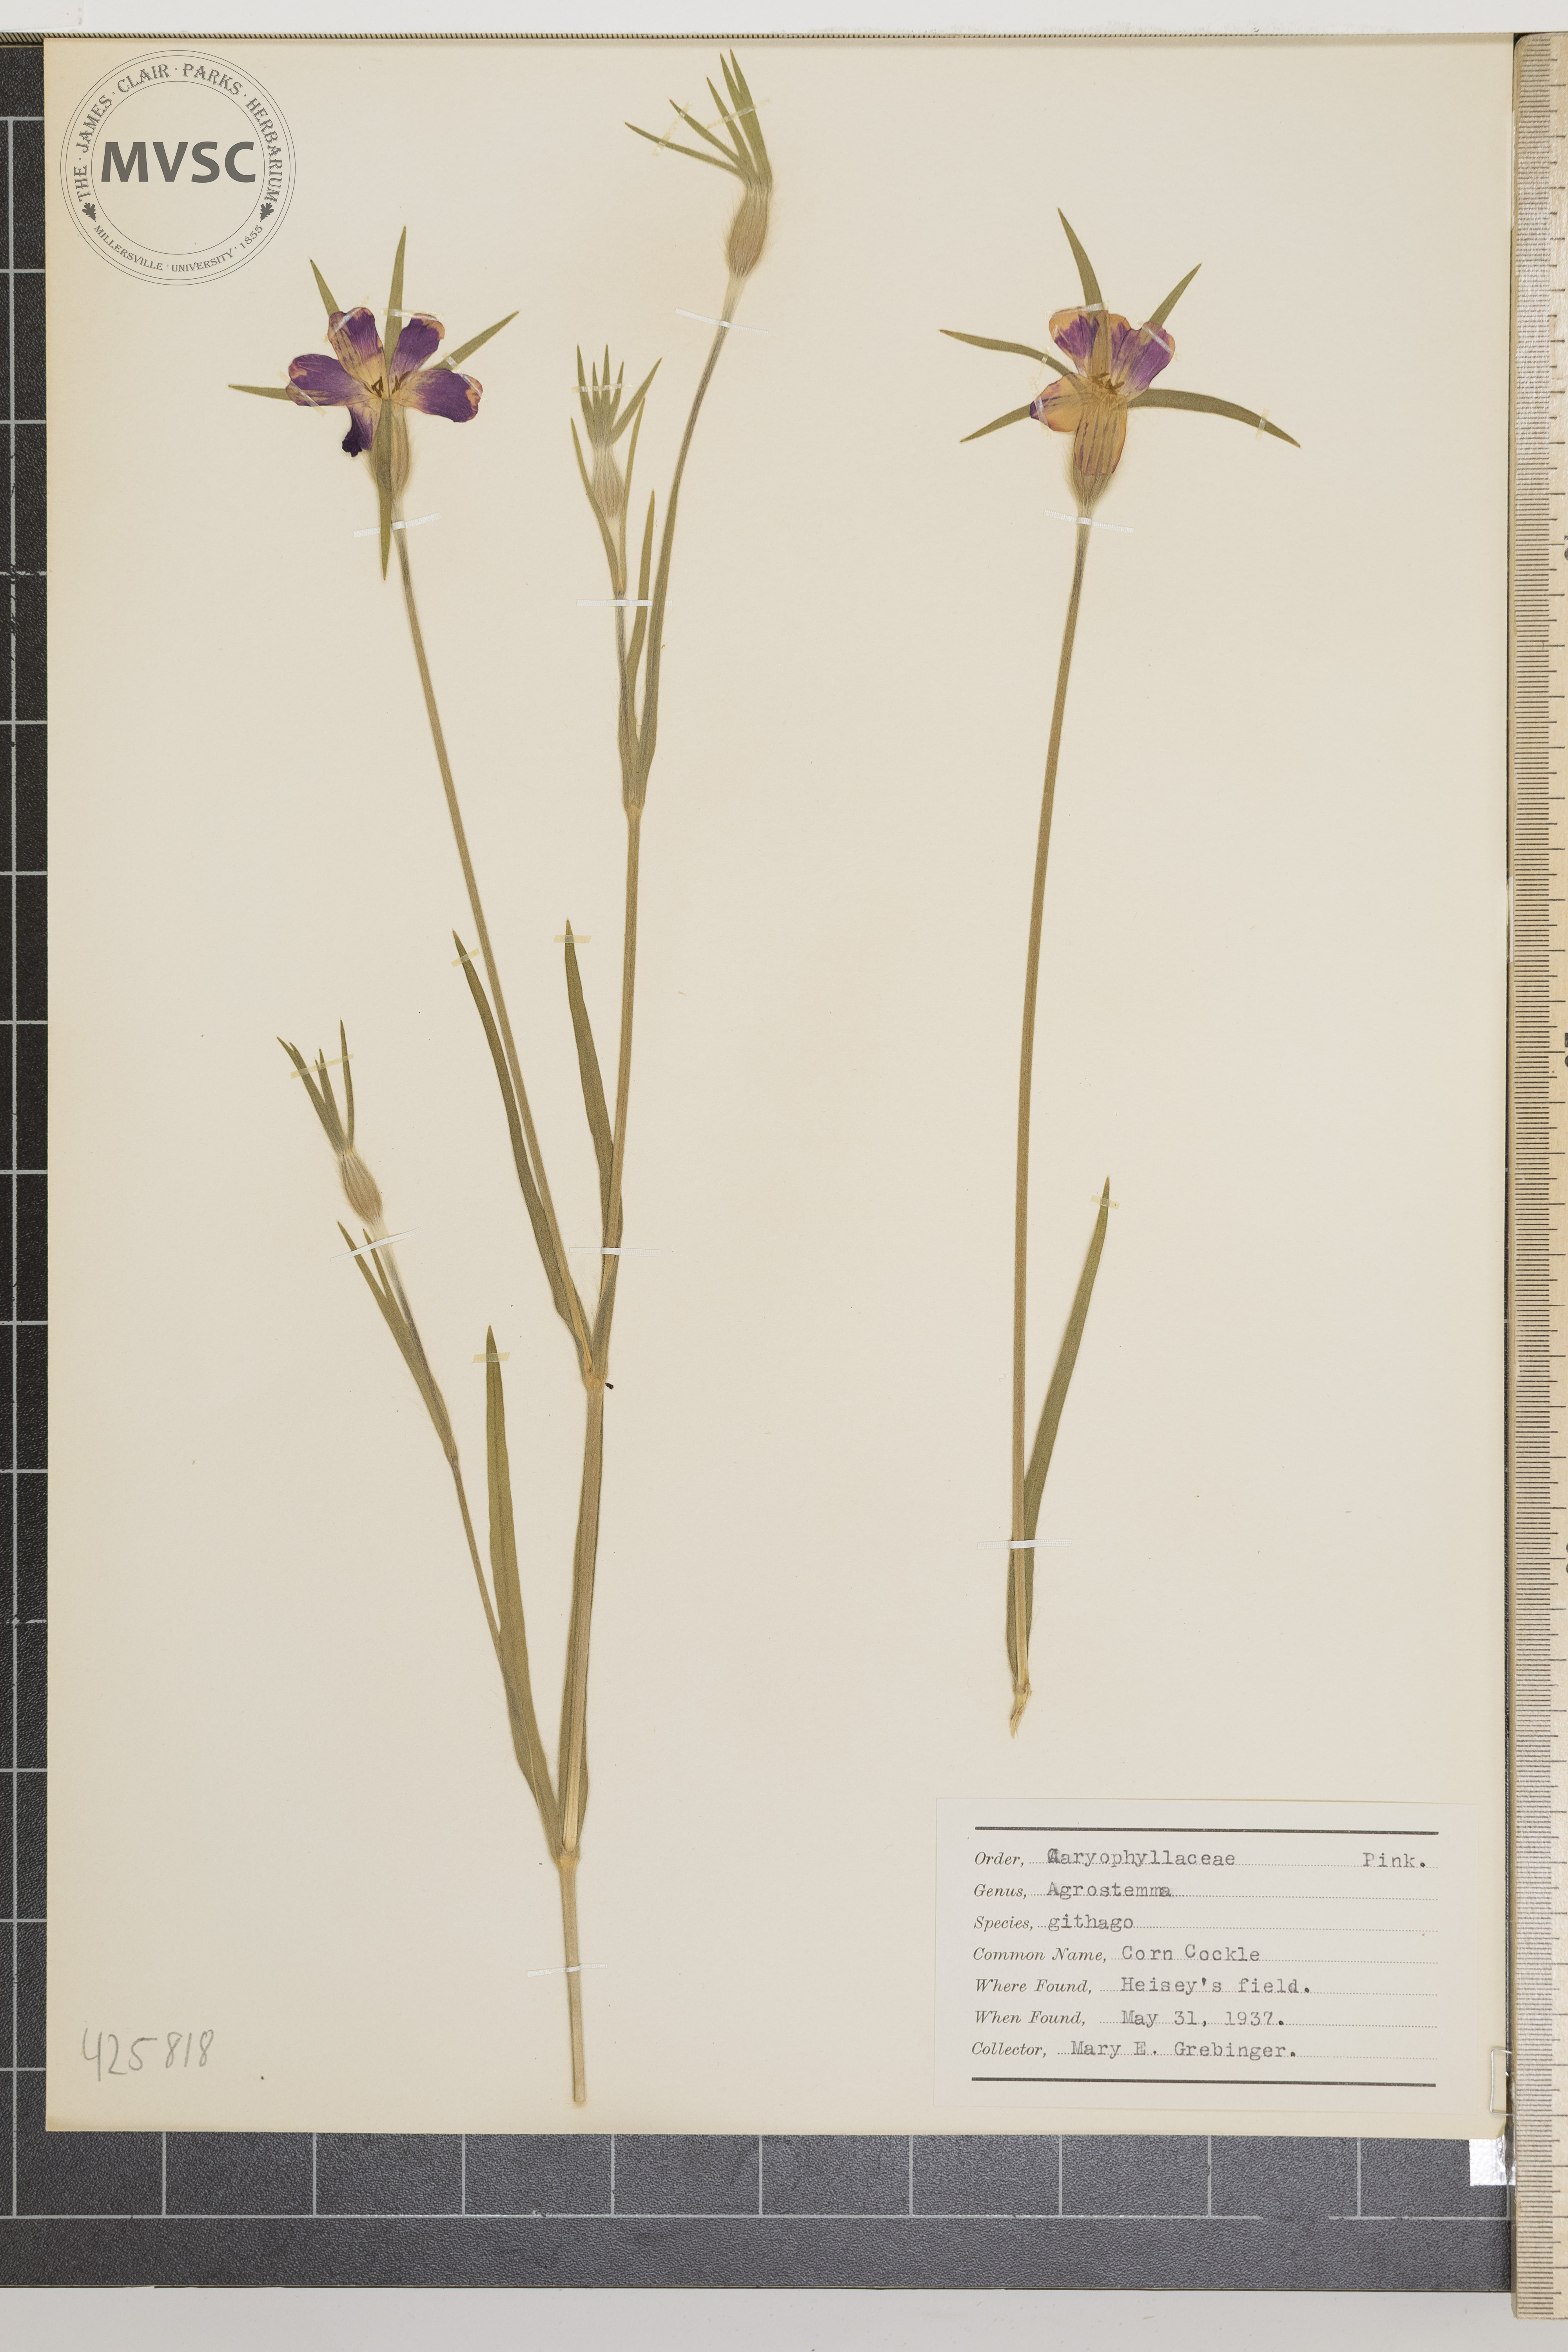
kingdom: Plantae
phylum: Tracheophyta
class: Magnoliopsida
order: Caryophyllales
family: Caryophyllaceae
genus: Agrostemma
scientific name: Agrostemma githago
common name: Corn cockle
